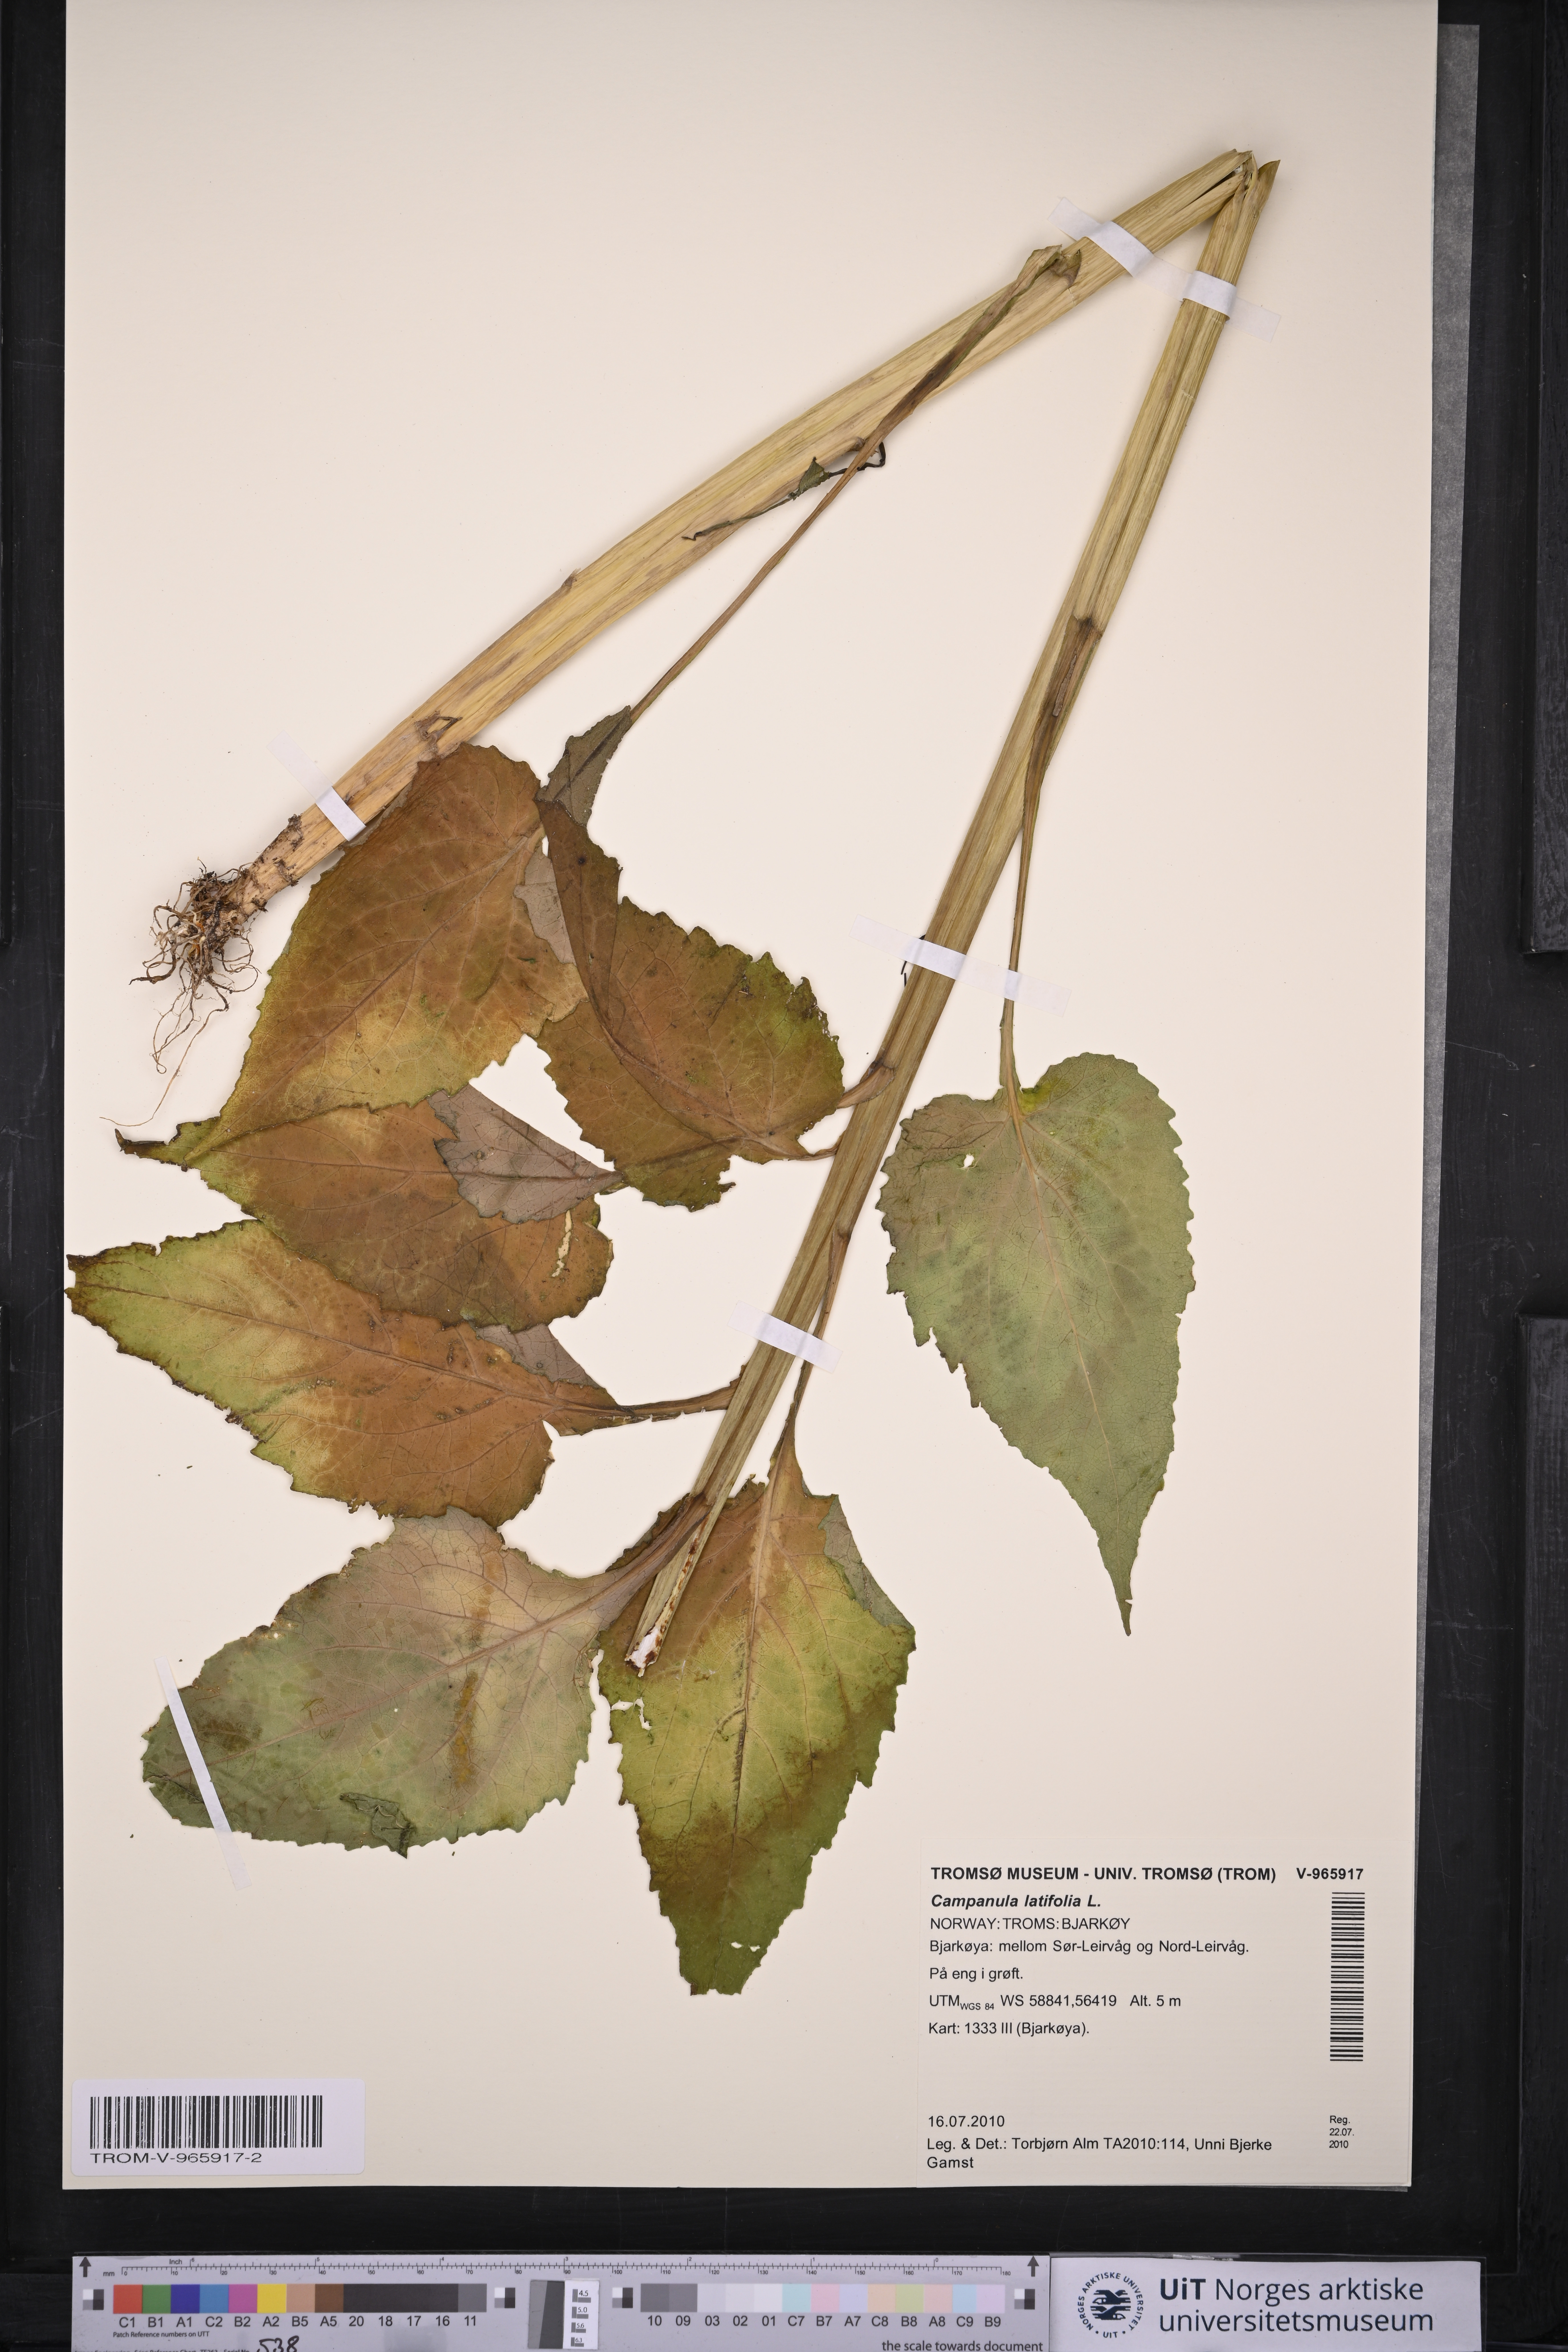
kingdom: Plantae
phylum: Tracheophyta
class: Magnoliopsida
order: Asterales
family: Campanulaceae
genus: Campanula
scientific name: Campanula latifolia
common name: Giant bellflower
